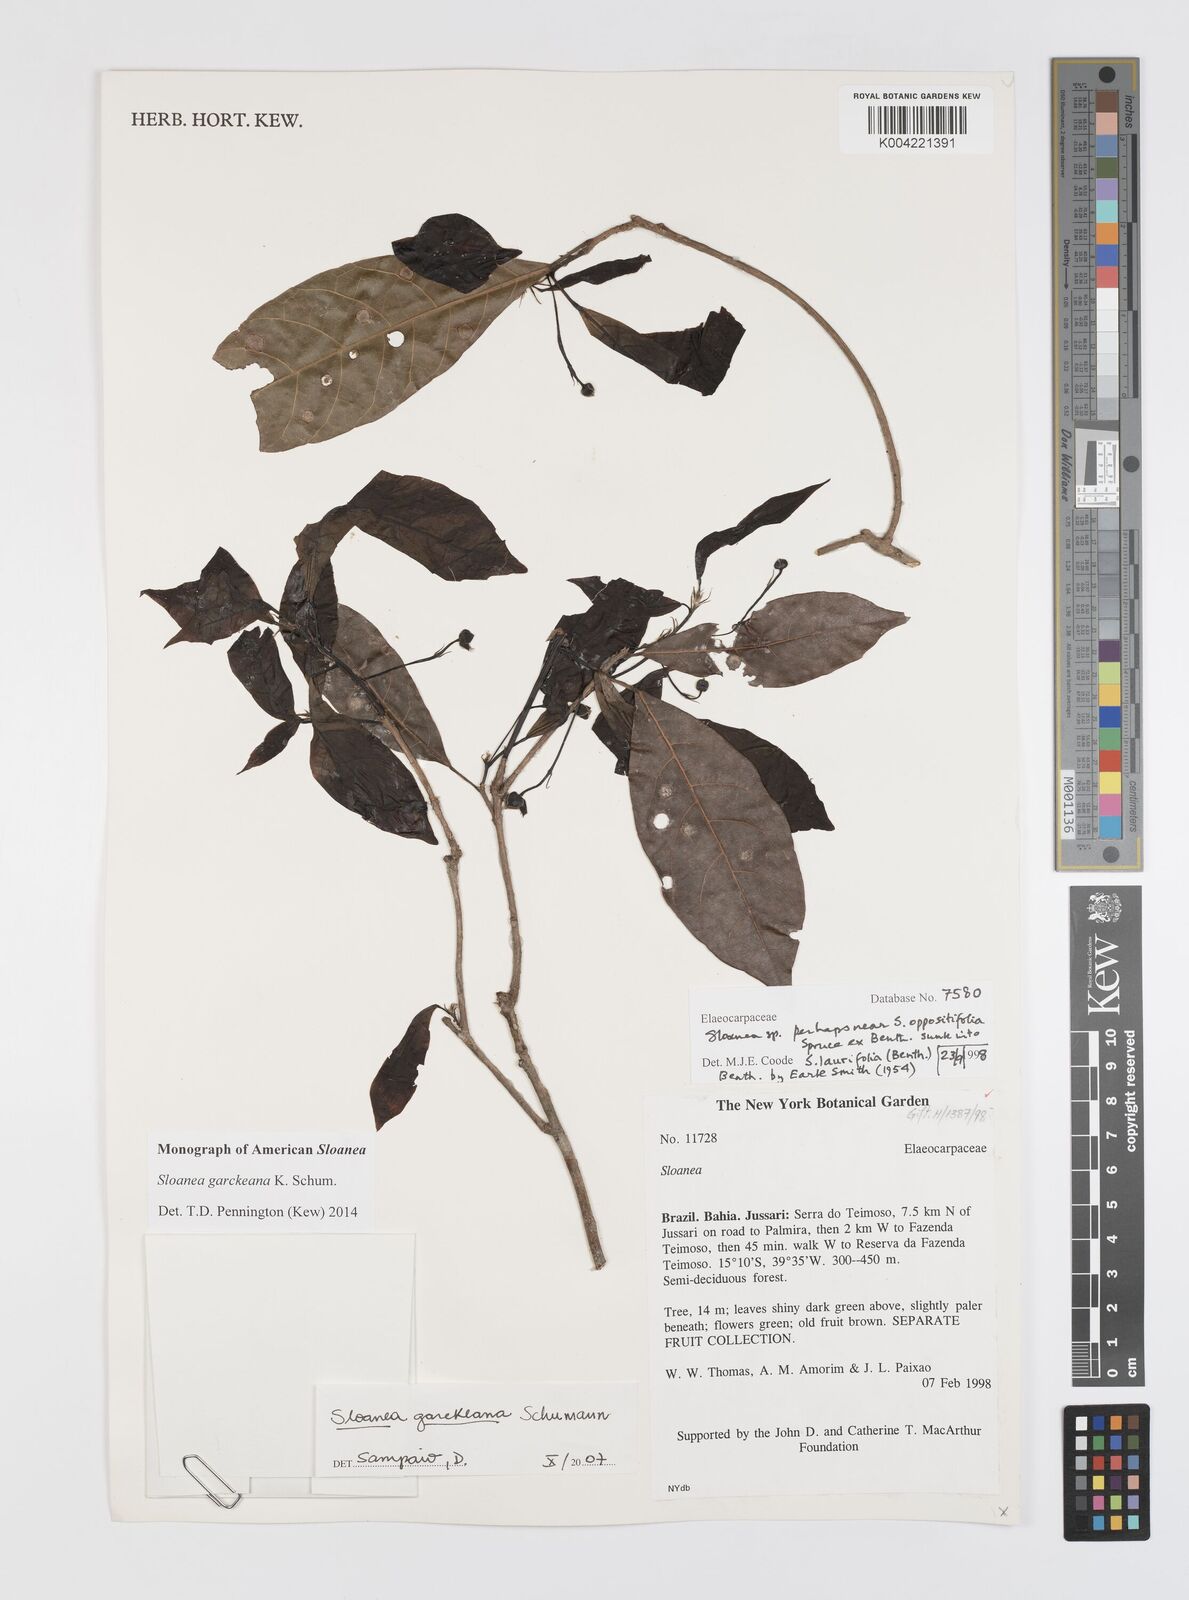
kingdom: Plantae
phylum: Tracheophyta
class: Magnoliopsida
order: Oxalidales
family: Elaeocarpaceae
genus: Sloanea
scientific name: Sloanea garckeana
